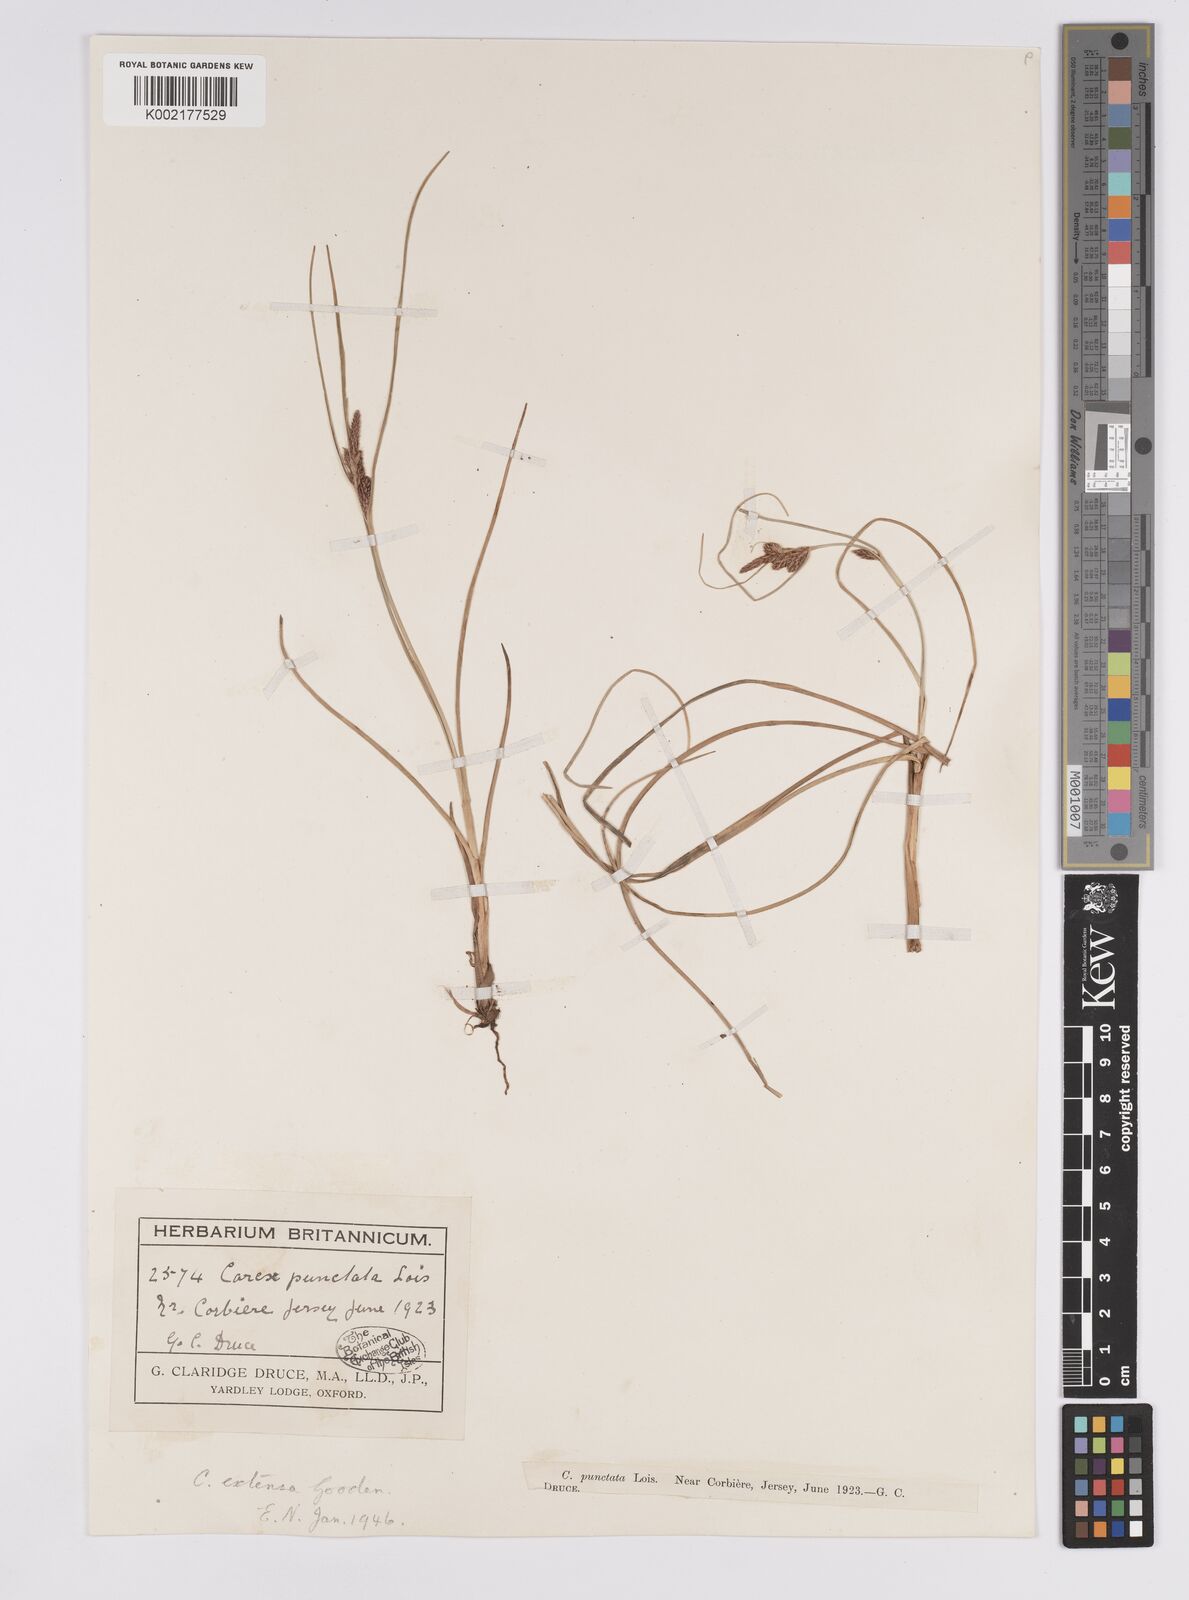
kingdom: Plantae
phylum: Tracheophyta
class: Liliopsida
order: Poales
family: Cyperaceae
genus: Carex
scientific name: Carex extensa
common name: Long-bracted sedge
